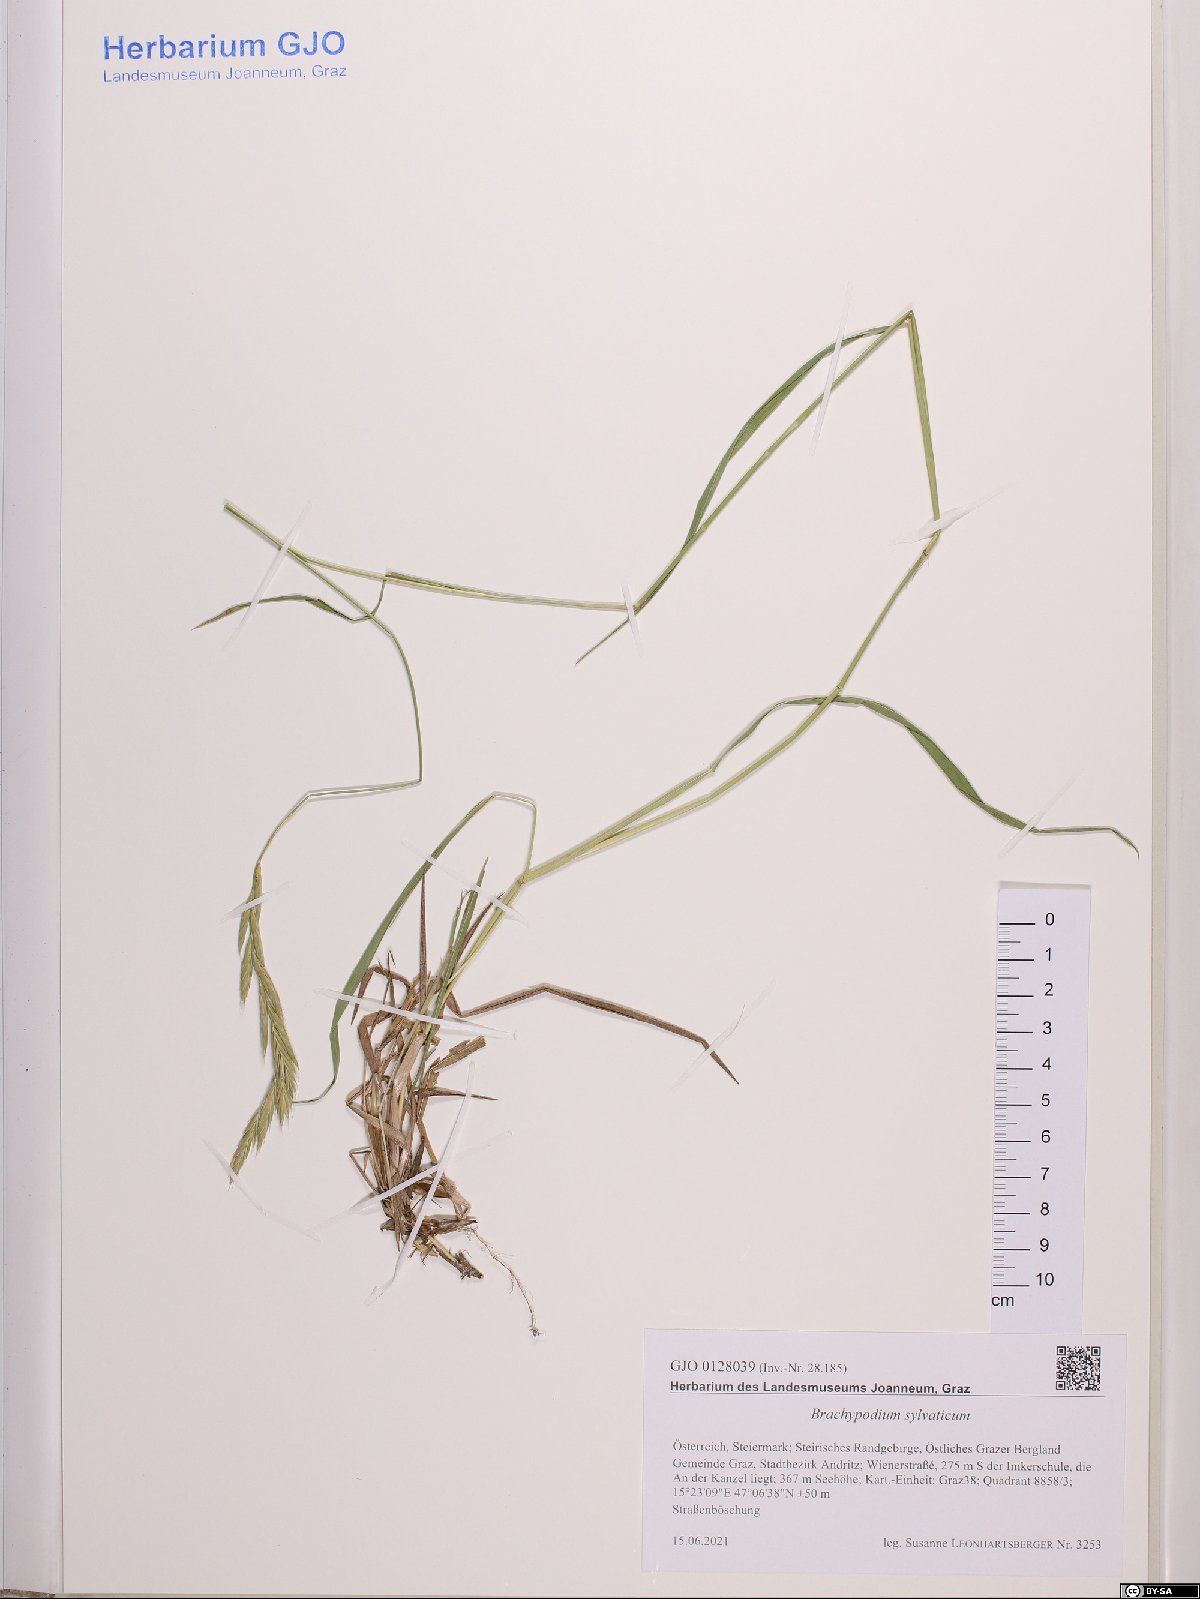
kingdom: Plantae
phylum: Tracheophyta
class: Liliopsida
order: Poales
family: Poaceae
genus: Brachypodium
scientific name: Brachypodium sylvaticum
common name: False-brome
